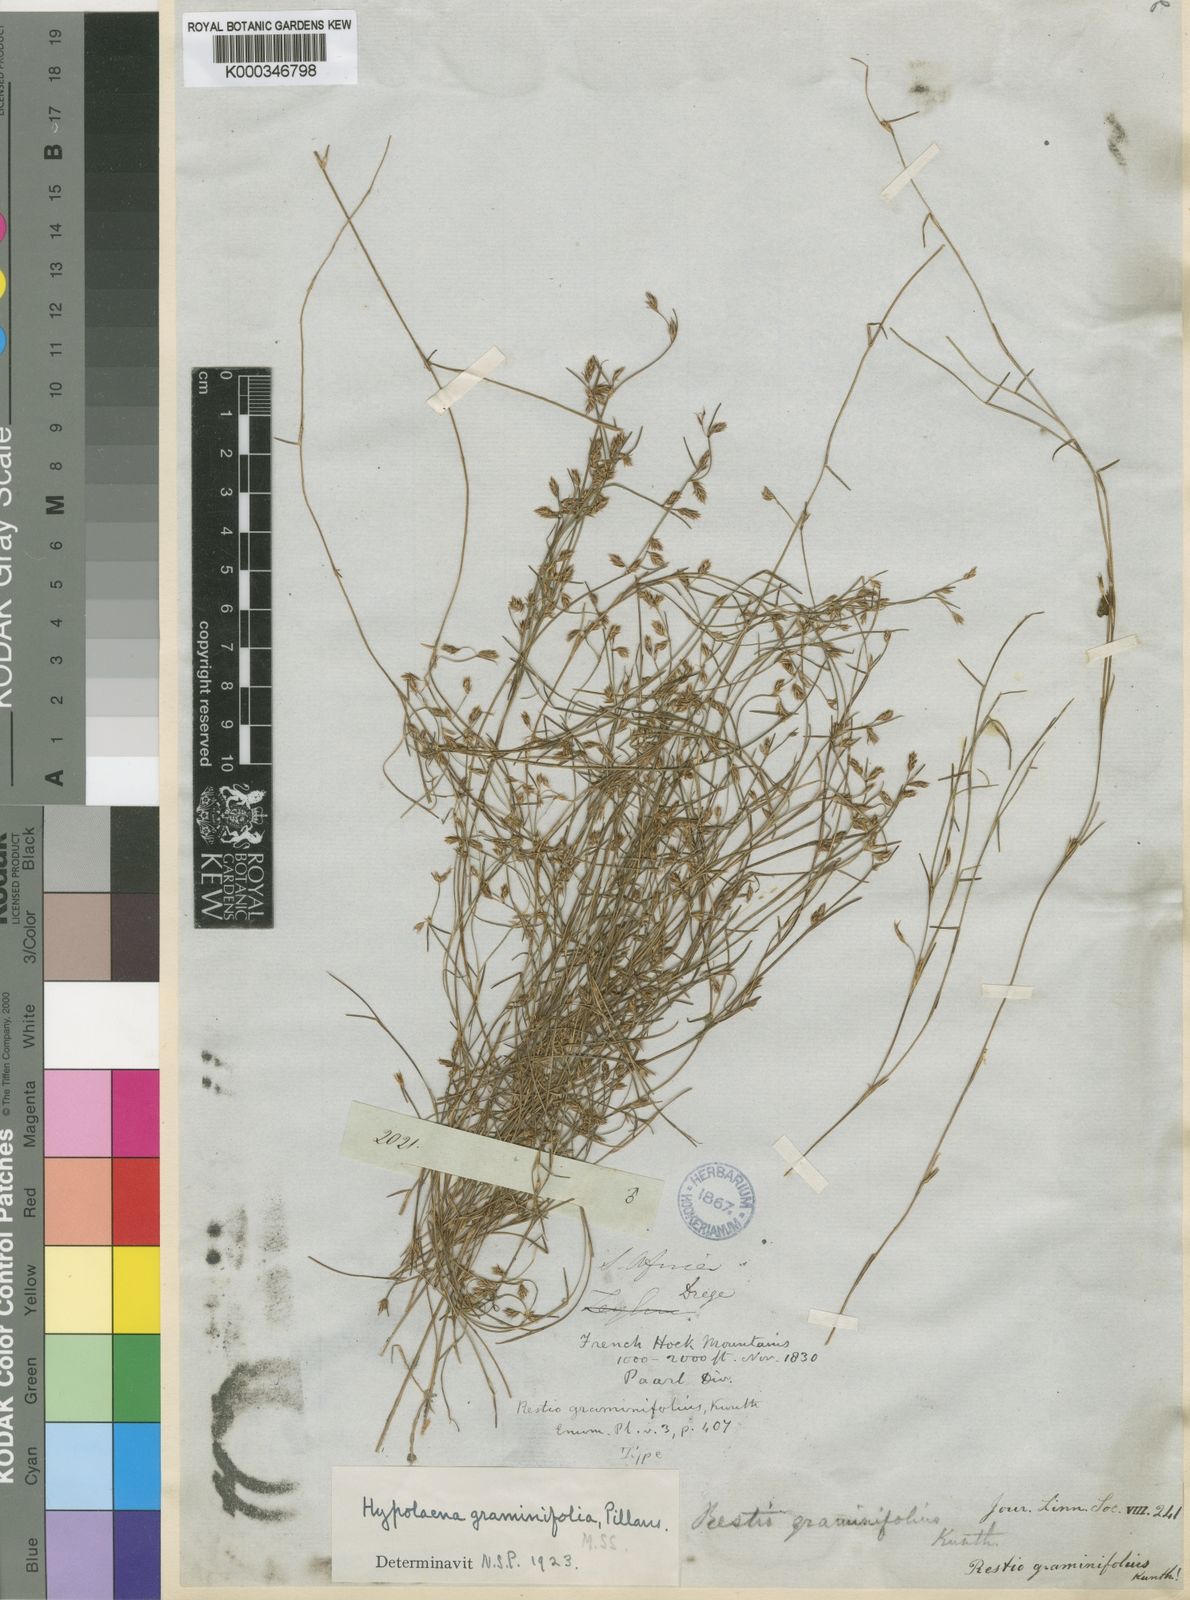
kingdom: Plantae
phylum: Tracheophyta
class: Liliopsida
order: Poales
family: Restionaceae
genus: Anthochortus
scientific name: Anthochortus graminifolius
